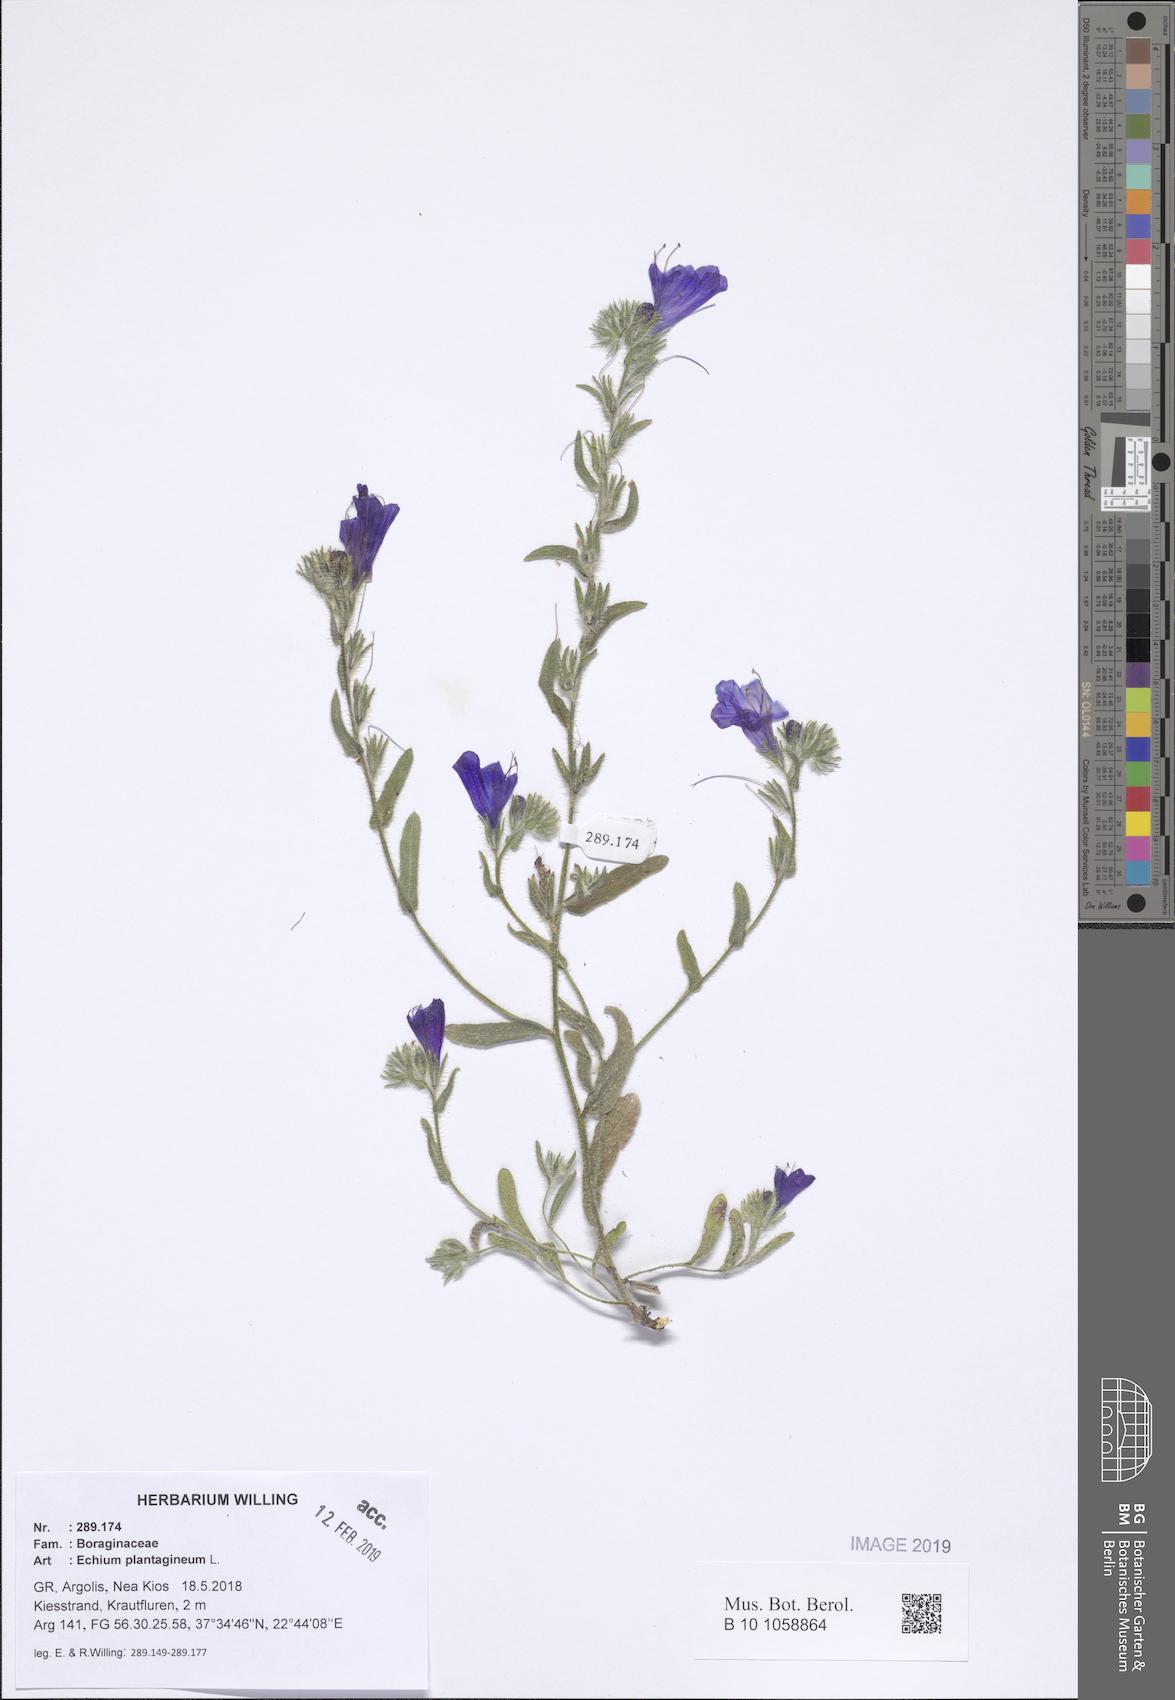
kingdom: Plantae
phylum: Tracheophyta
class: Magnoliopsida
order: Boraginales
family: Boraginaceae
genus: Echium
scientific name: Echium plantagineum
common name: Purple viper's-bugloss
